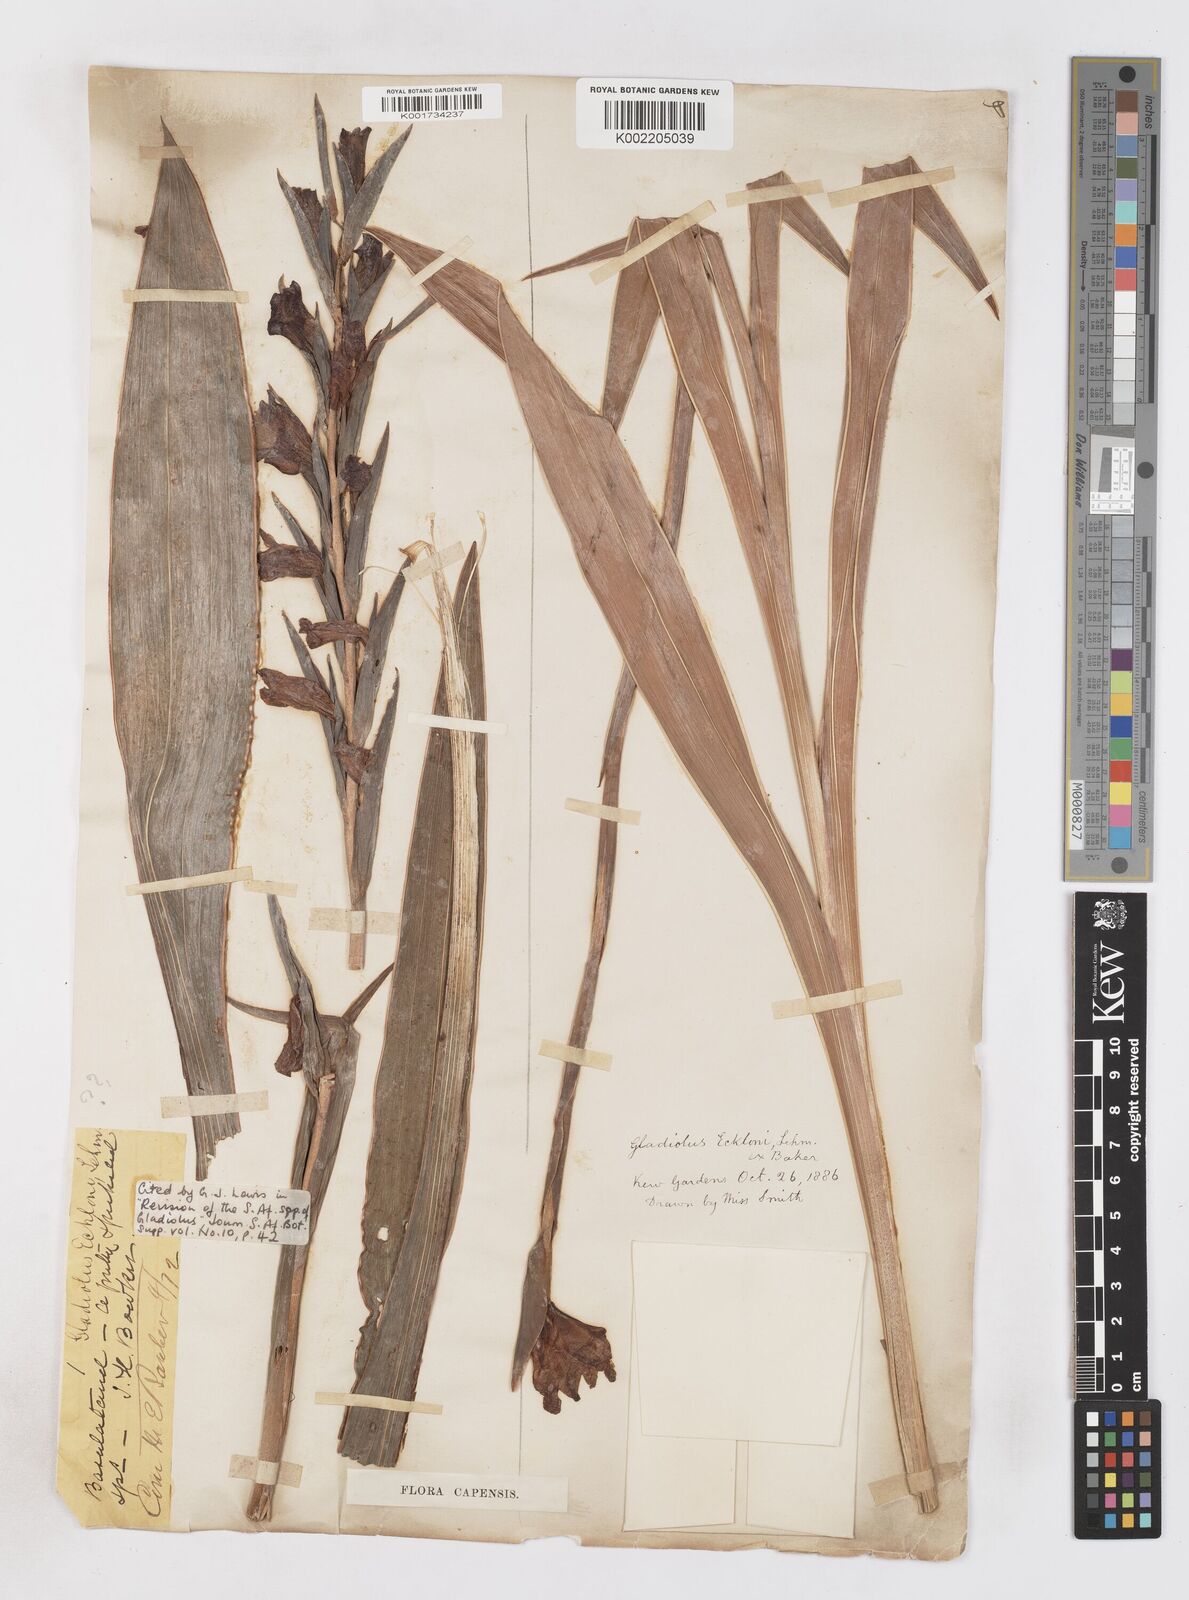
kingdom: Plantae
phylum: Tracheophyta
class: Liliopsida
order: Asparagales
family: Iridaceae
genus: Gladiolus
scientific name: Gladiolus ecklonii
